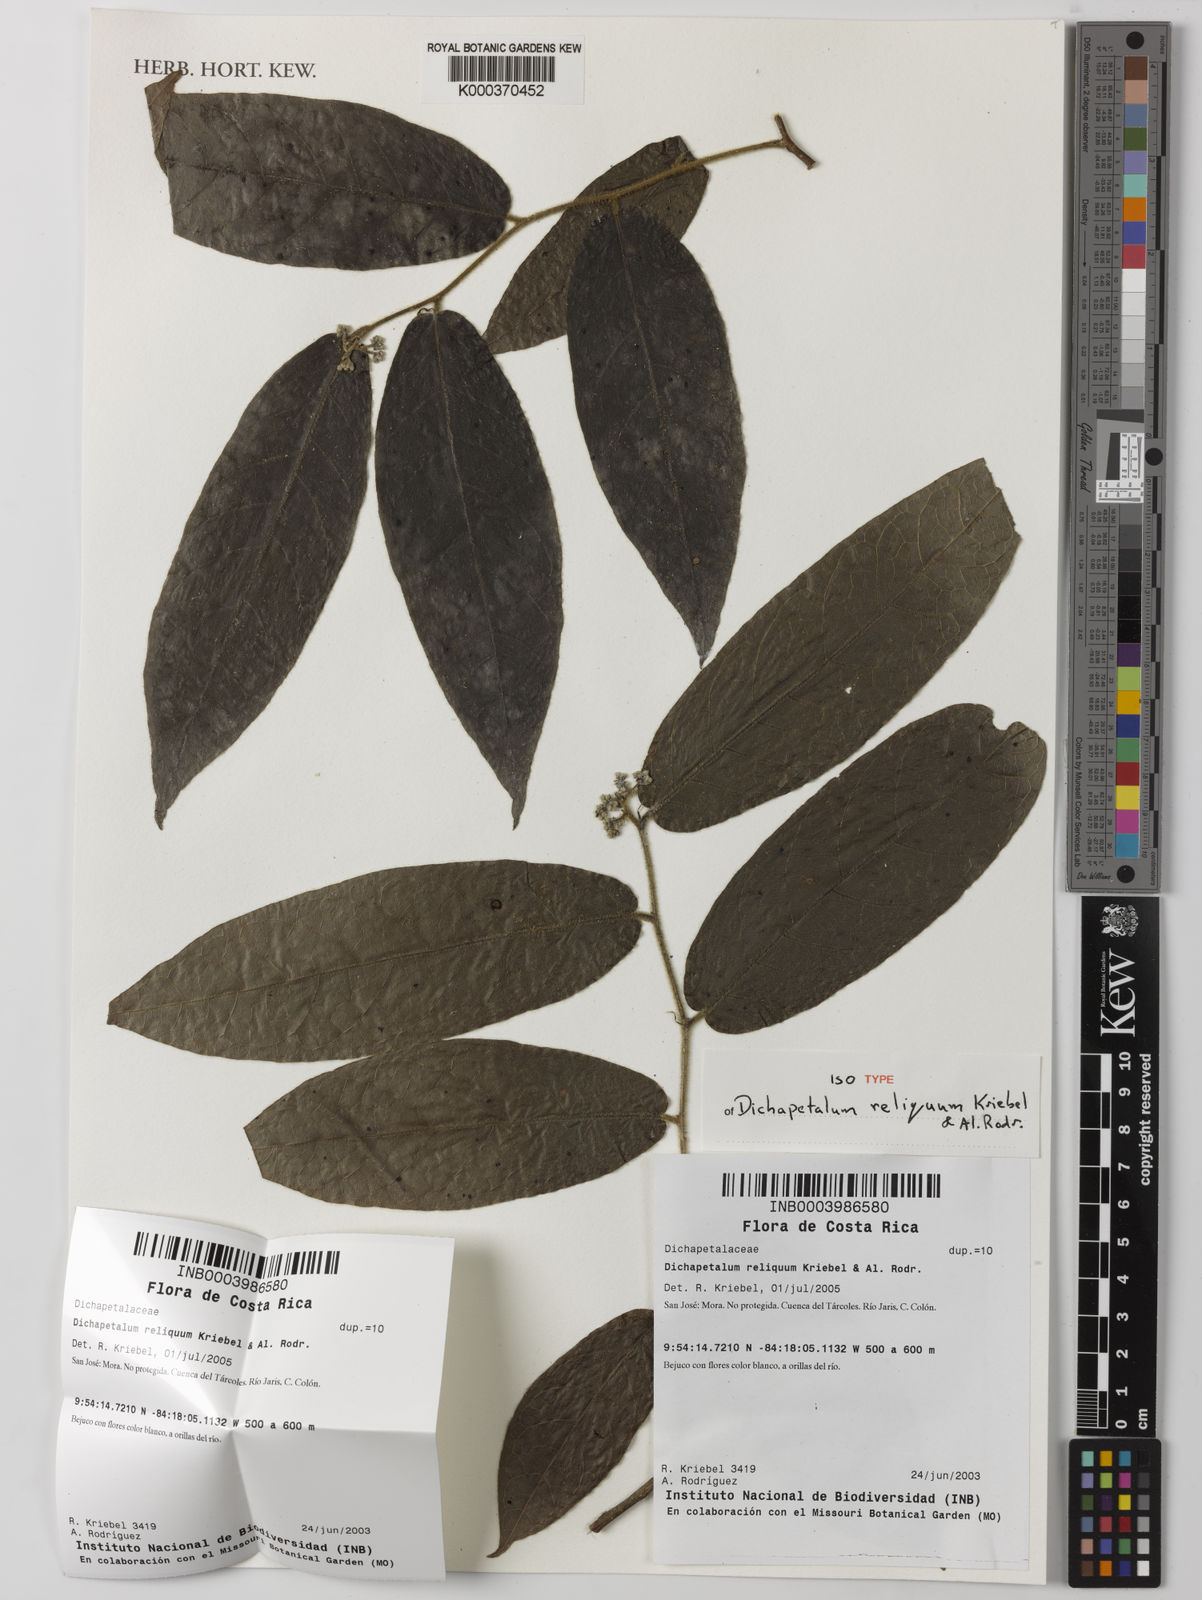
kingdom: Plantae
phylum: Tracheophyta
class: Magnoliopsida
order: Malpighiales
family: Dichapetalaceae
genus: Dichapetalum
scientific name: Dichapetalum reliquum
